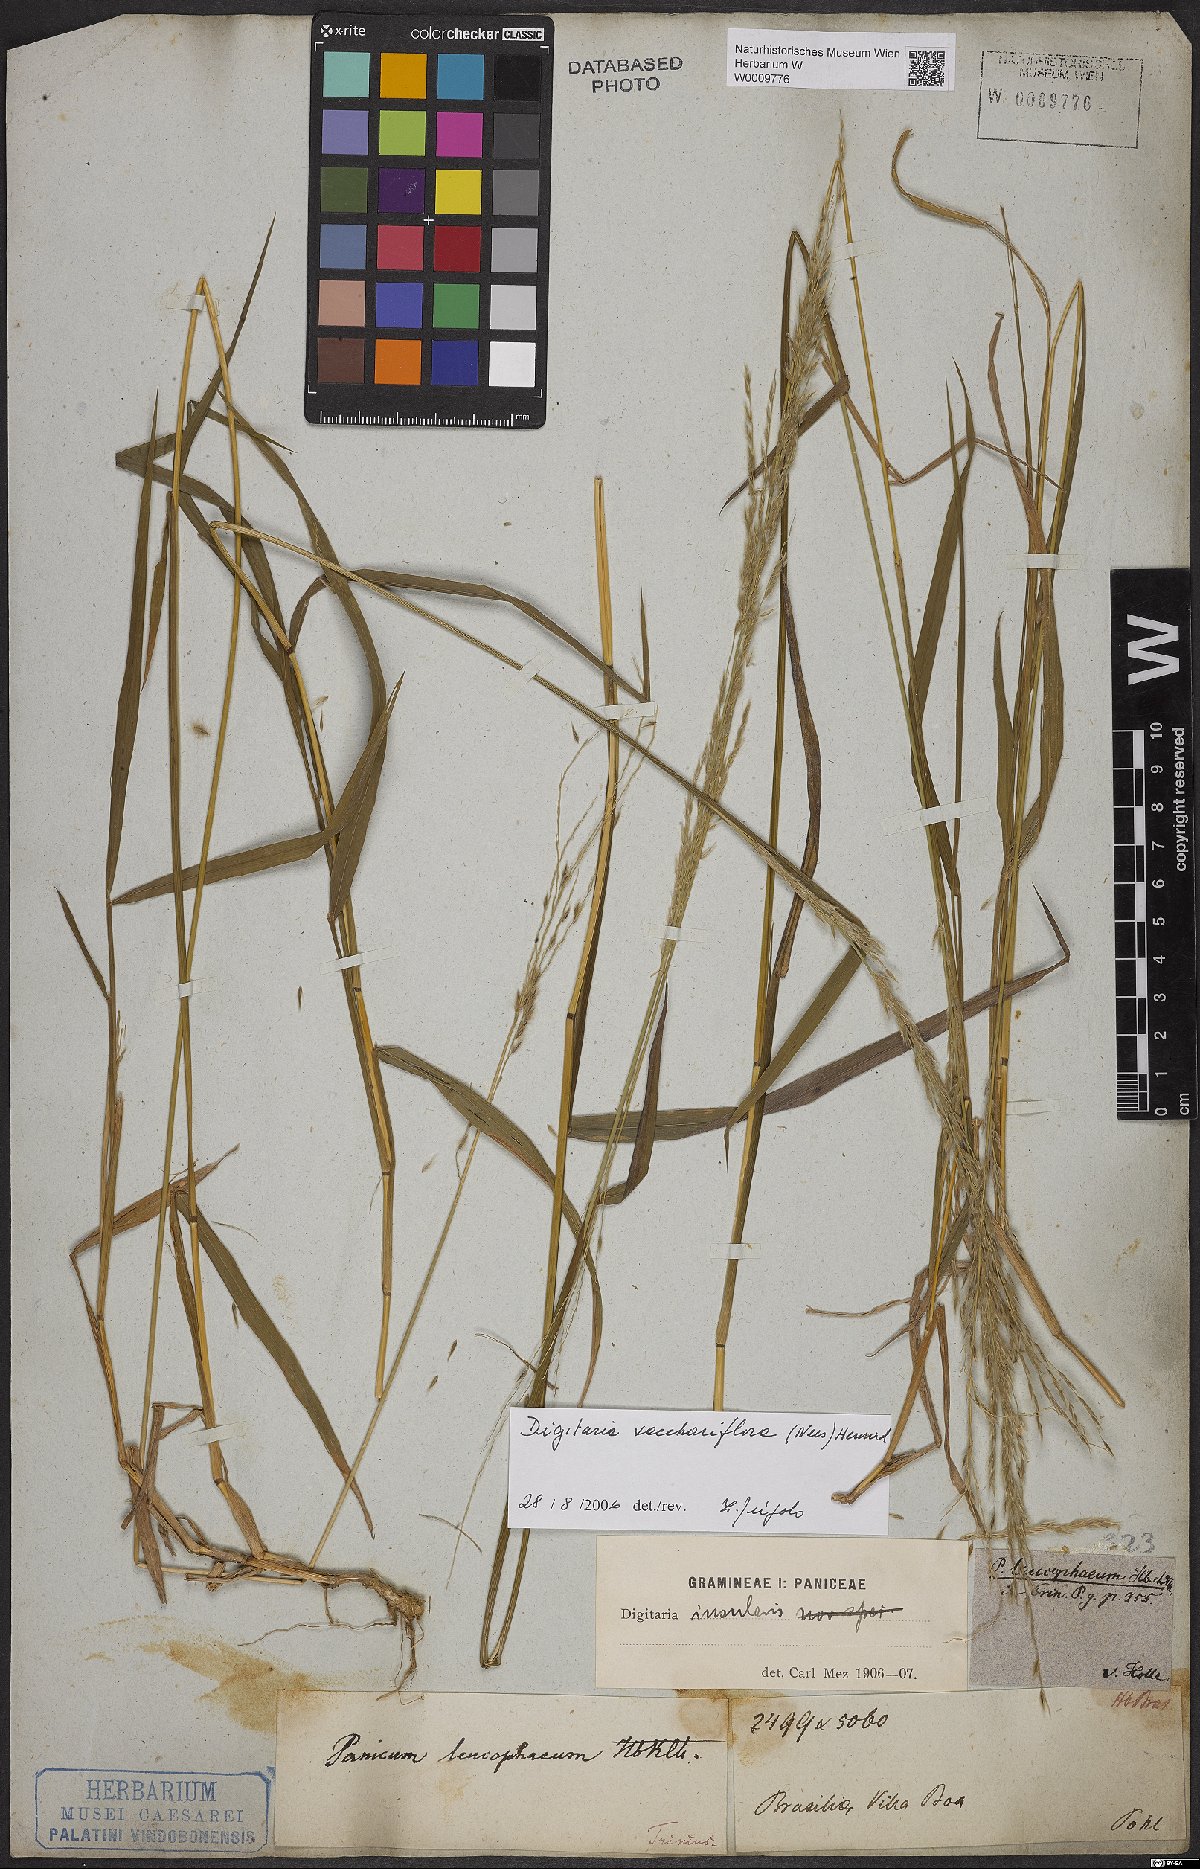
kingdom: Plantae
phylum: Tracheophyta
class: Liliopsida
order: Poales
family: Poaceae
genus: Digitaria
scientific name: Digitaria sacchariflora
